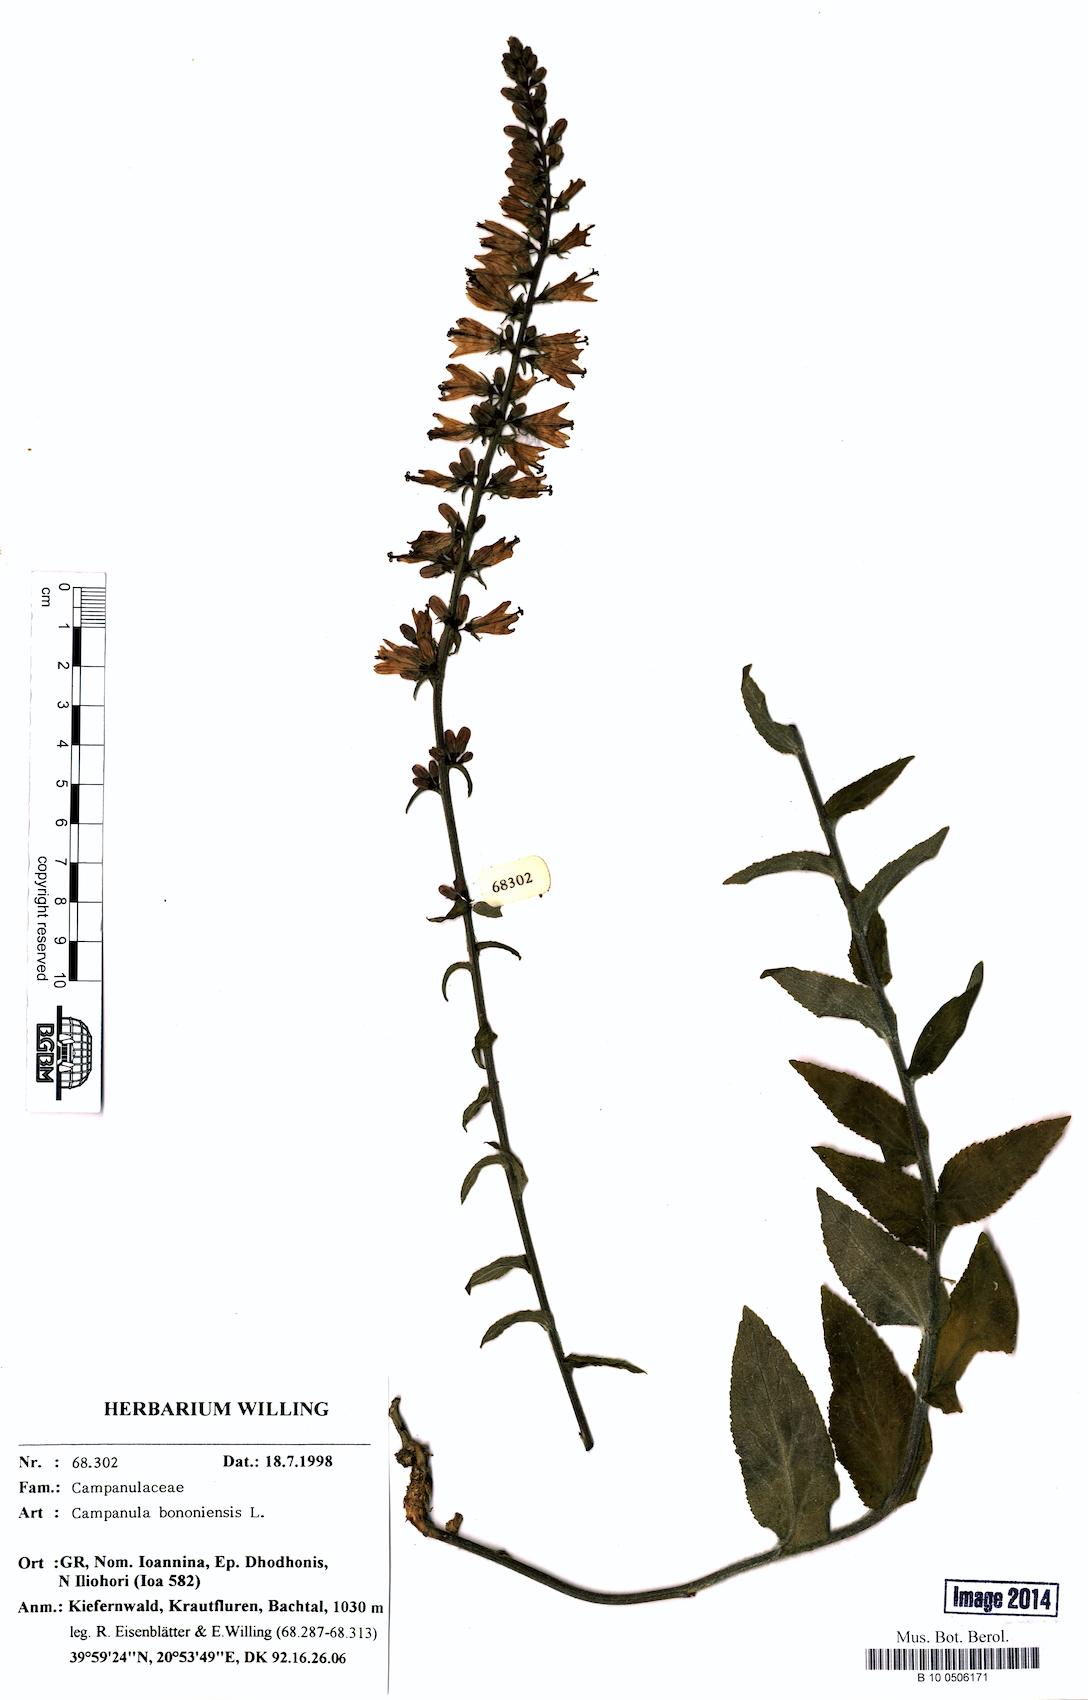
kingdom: Plantae
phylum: Tracheophyta
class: Magnoliopsida
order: Asterales
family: Campanulaceae
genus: Campanula
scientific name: Campanula bononiensis
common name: Pale bellflower
